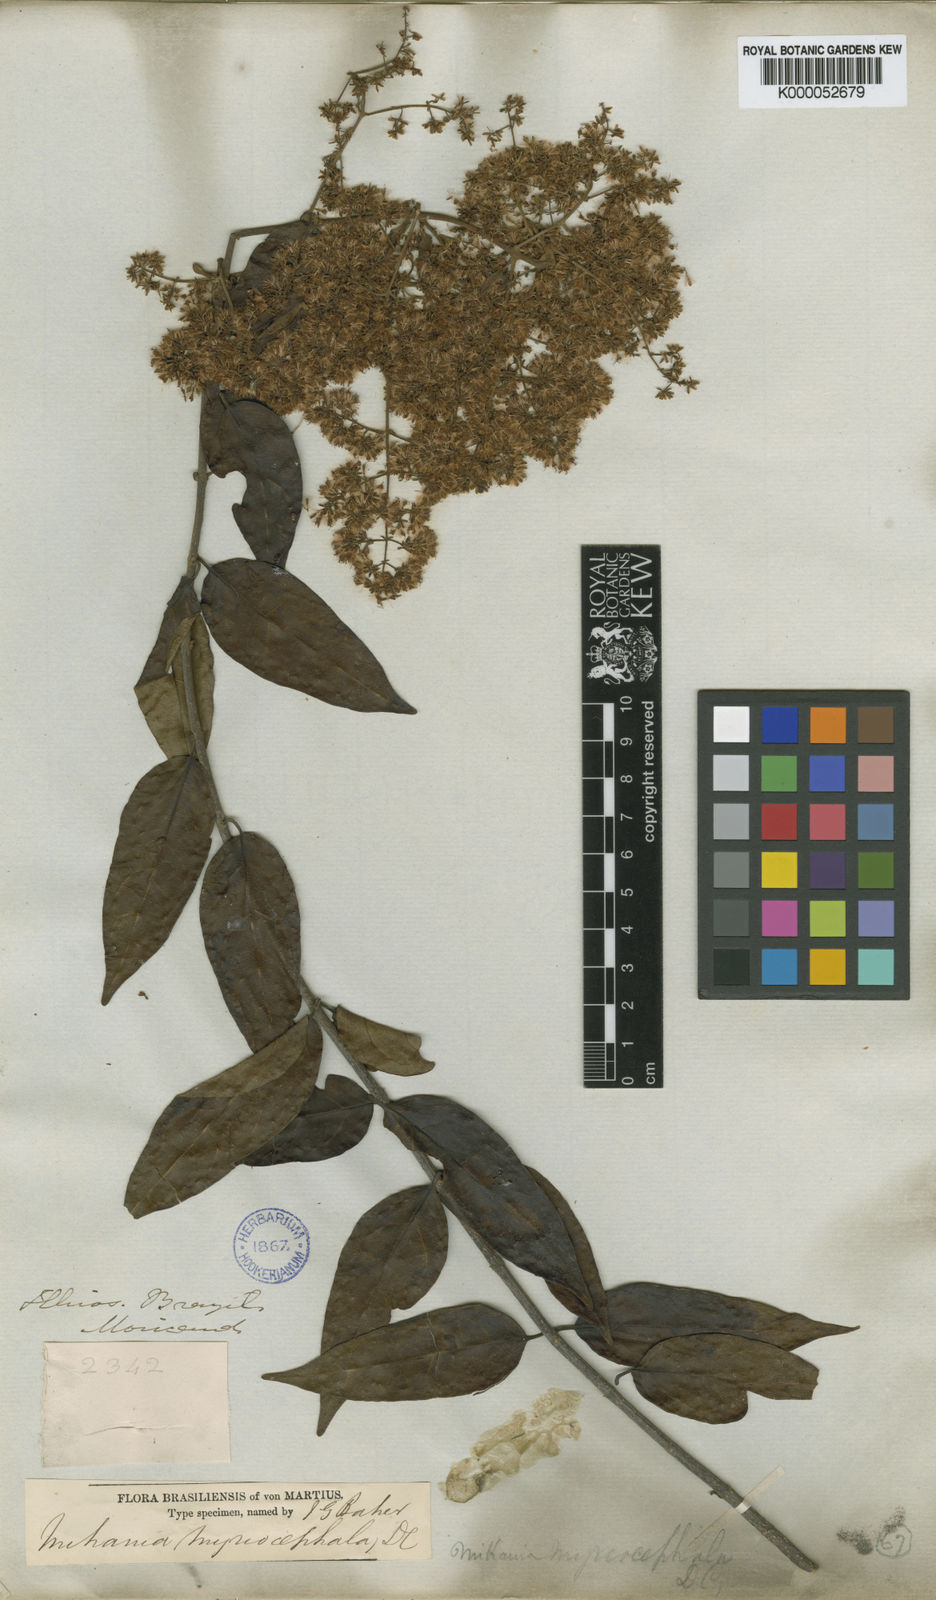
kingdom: Plantae
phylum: Tracheophyta
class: Magnoliopsida
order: Asterales
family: Asteraceae
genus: Mikania
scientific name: Mikania myriocephala
